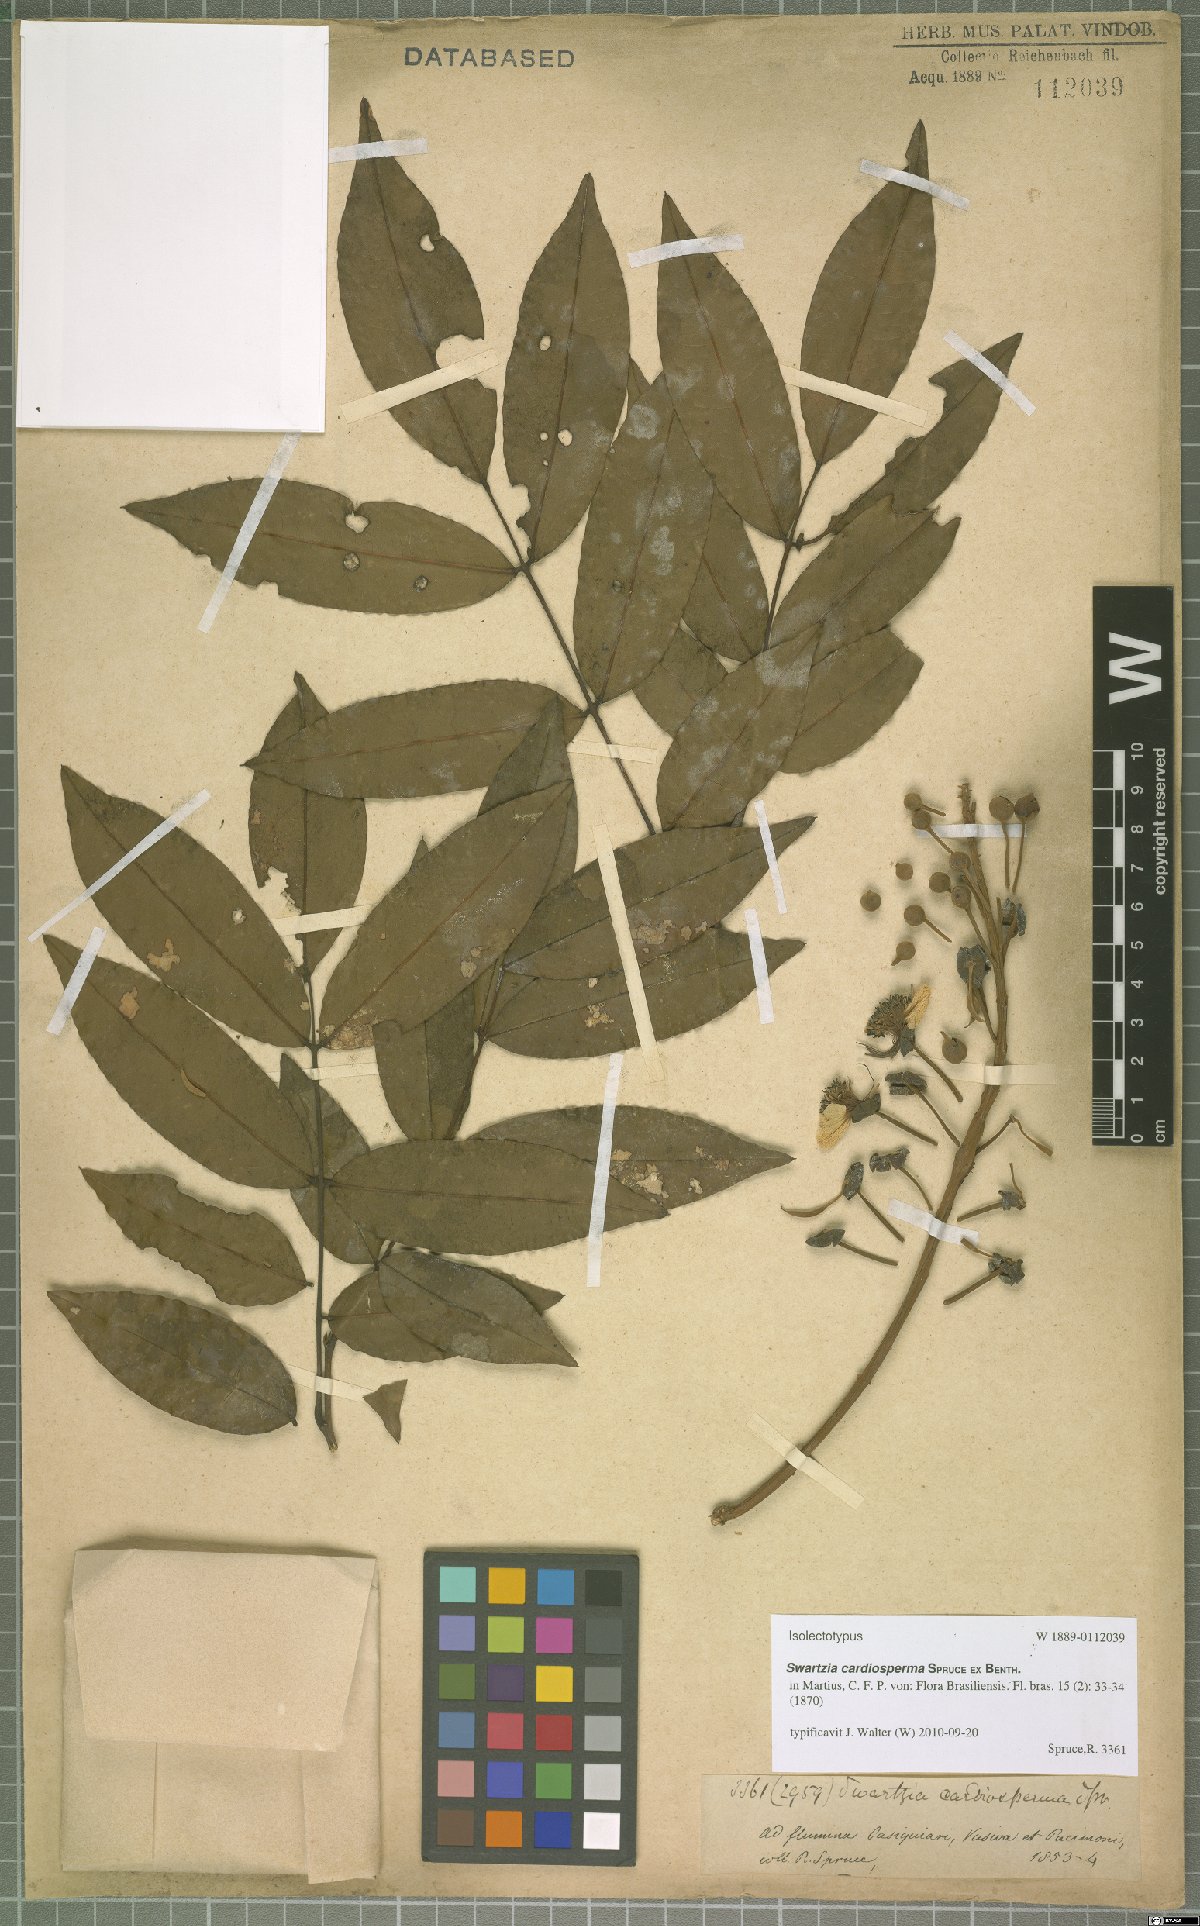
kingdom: Plantae
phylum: Tracheophyta
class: Magnoliopsida
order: Fabales
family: Fabaceae
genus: Swartzia
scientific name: Swartzia cardiosperma
